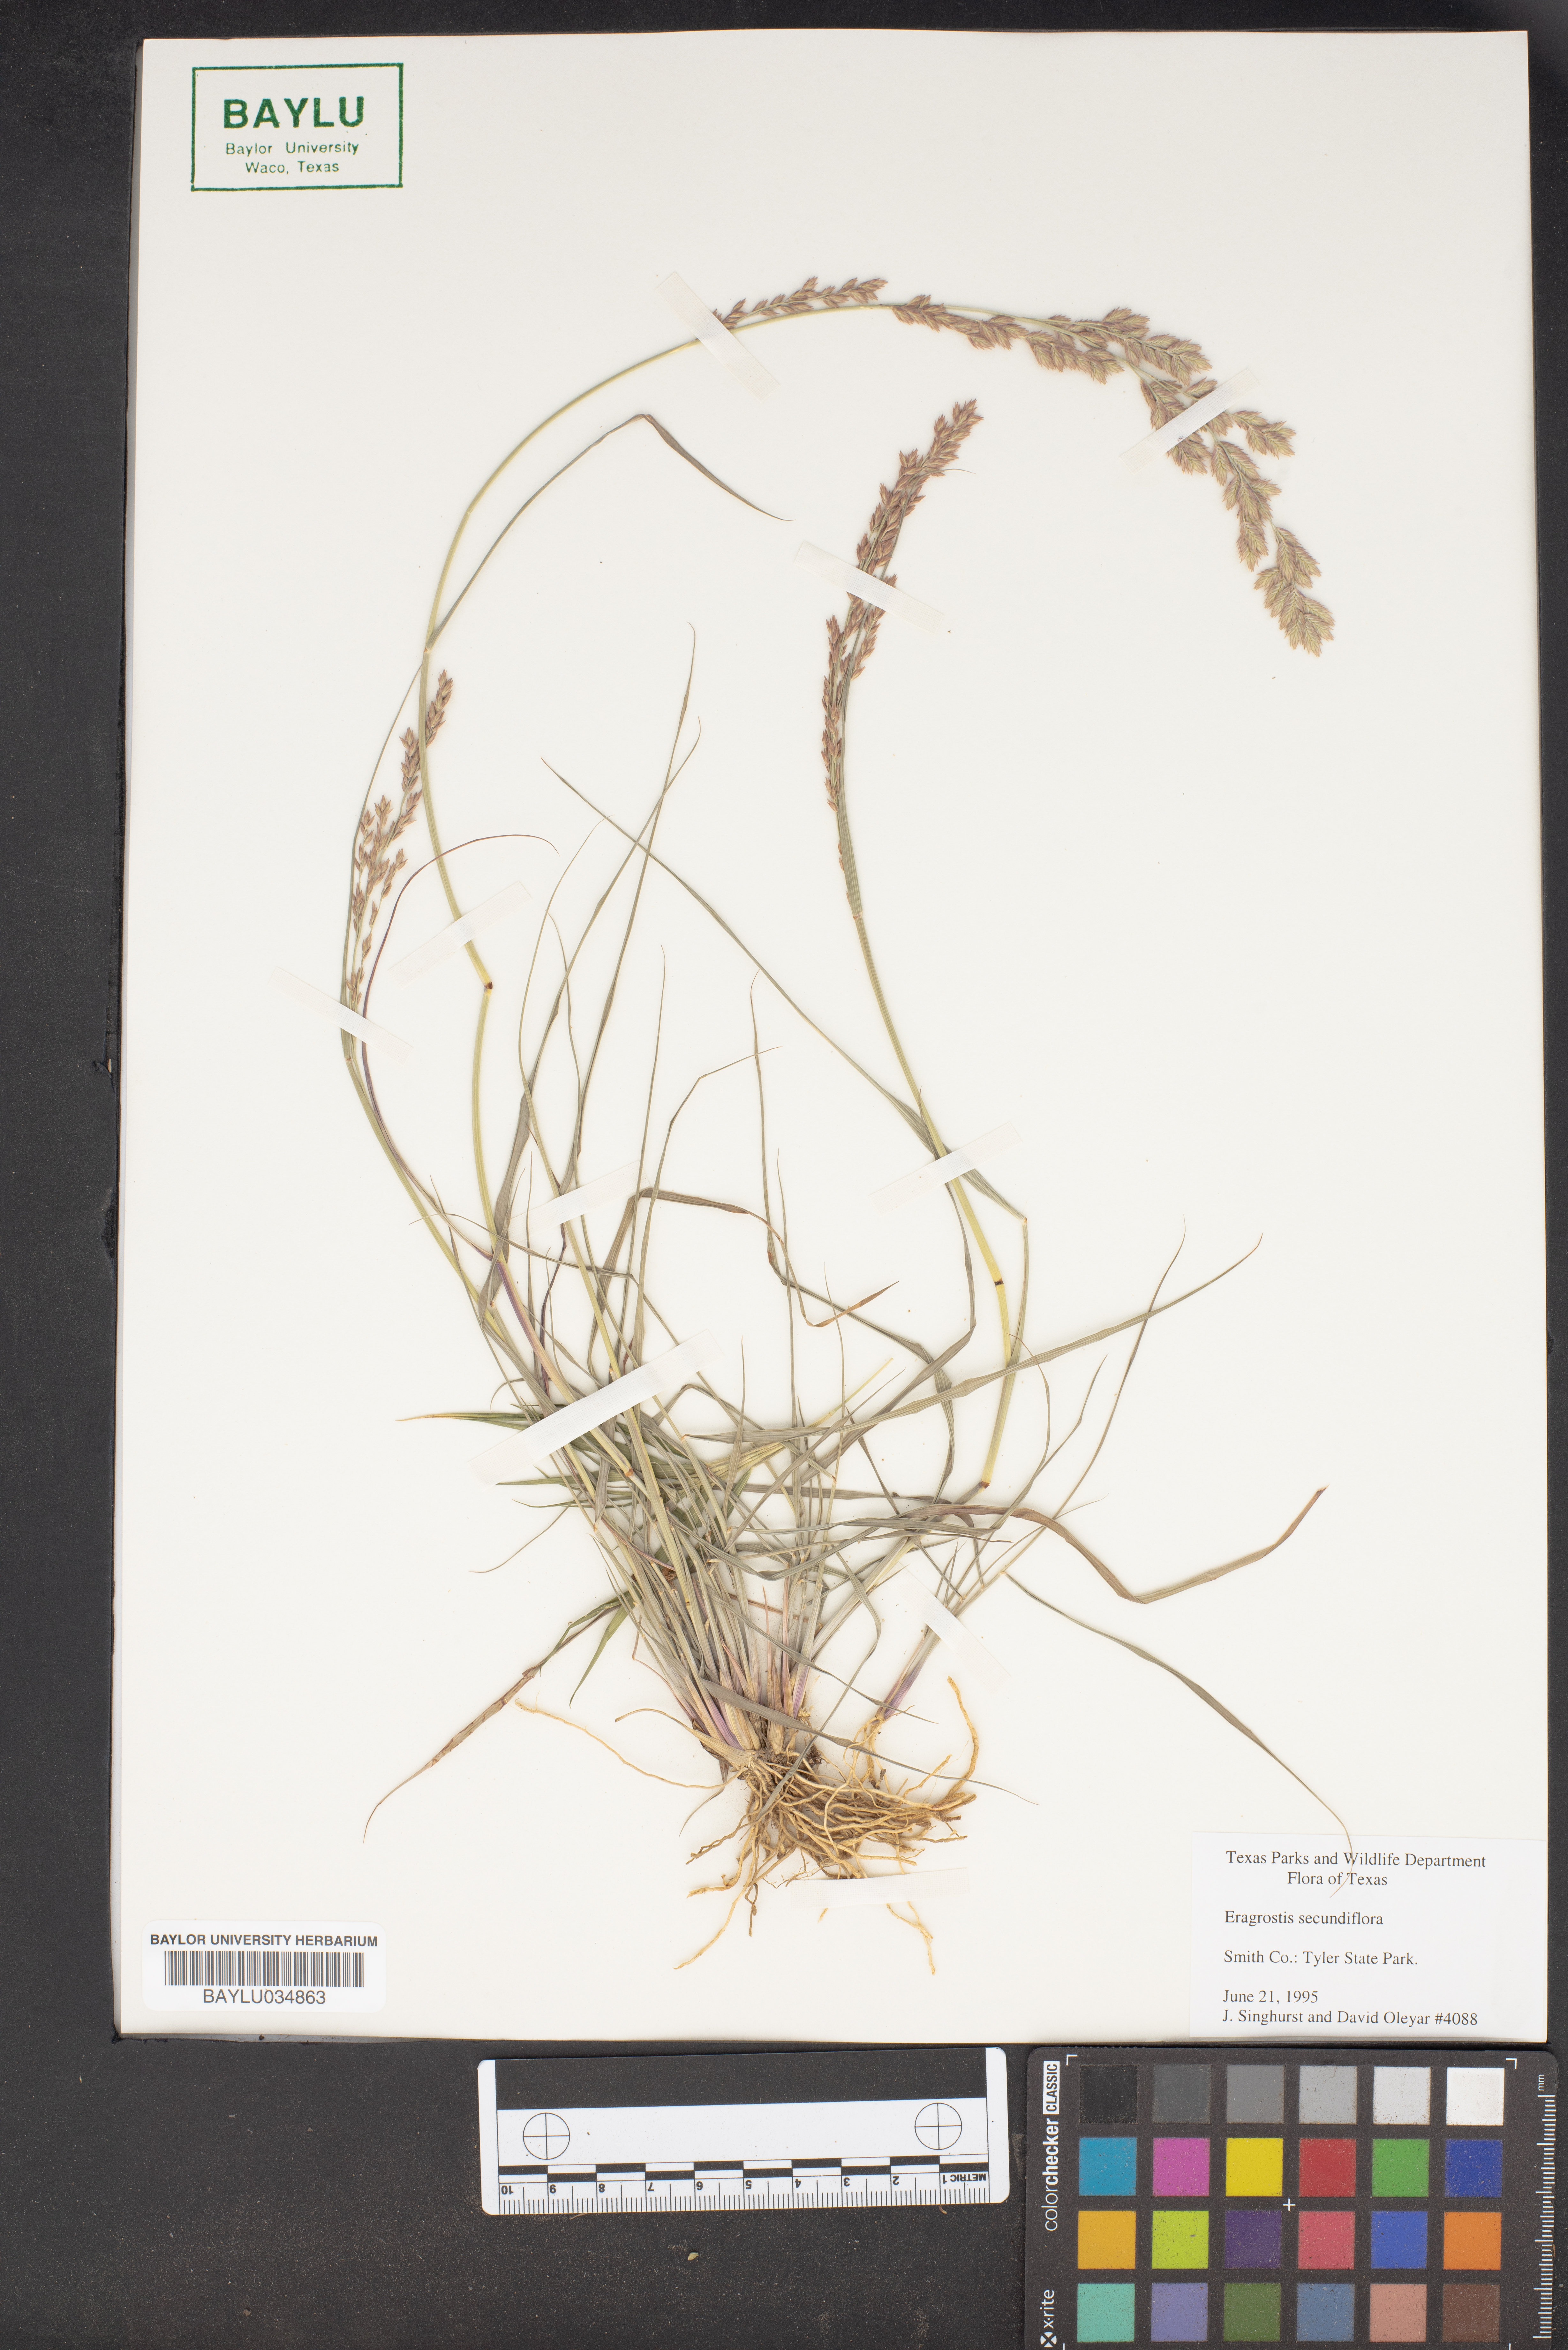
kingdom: Plantae
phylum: Tracheophyta
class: Liliopsida
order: Poales
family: Poaceae
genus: Eragrostis
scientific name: Eragrostis secundiflora
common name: Red love grass
